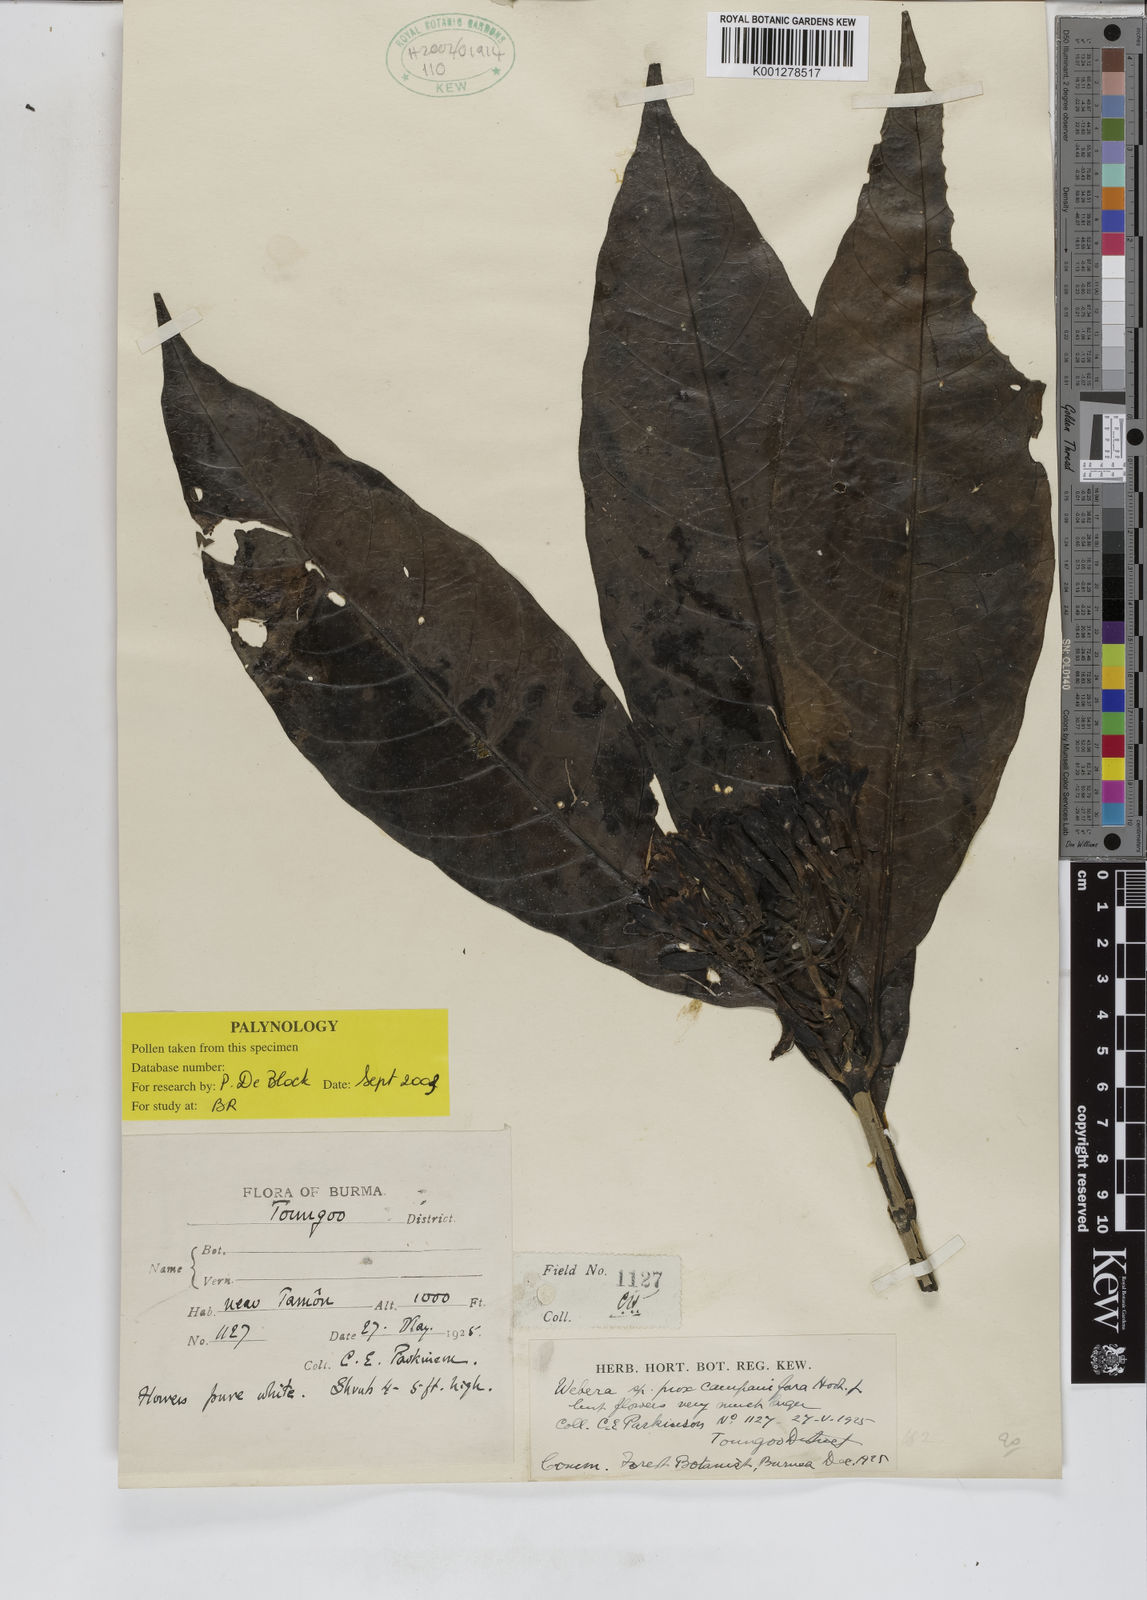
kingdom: Plantae
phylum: Tracheophyta
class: Magnoliopsida
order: Gentianales
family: Rubiaceae
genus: Tarenna
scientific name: Tarenna campaniflora
